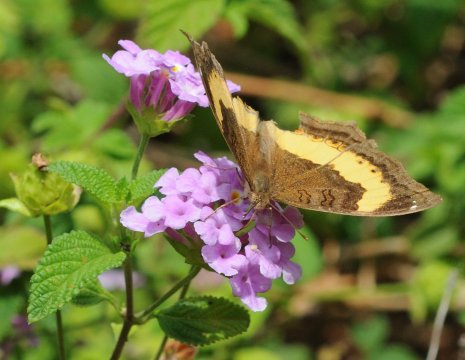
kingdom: Animalia
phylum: Arthropoda
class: Insecta
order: Lepidoptera
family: Nymphalidae
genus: Junonia
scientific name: Junonia terea
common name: Soldier Pansy
